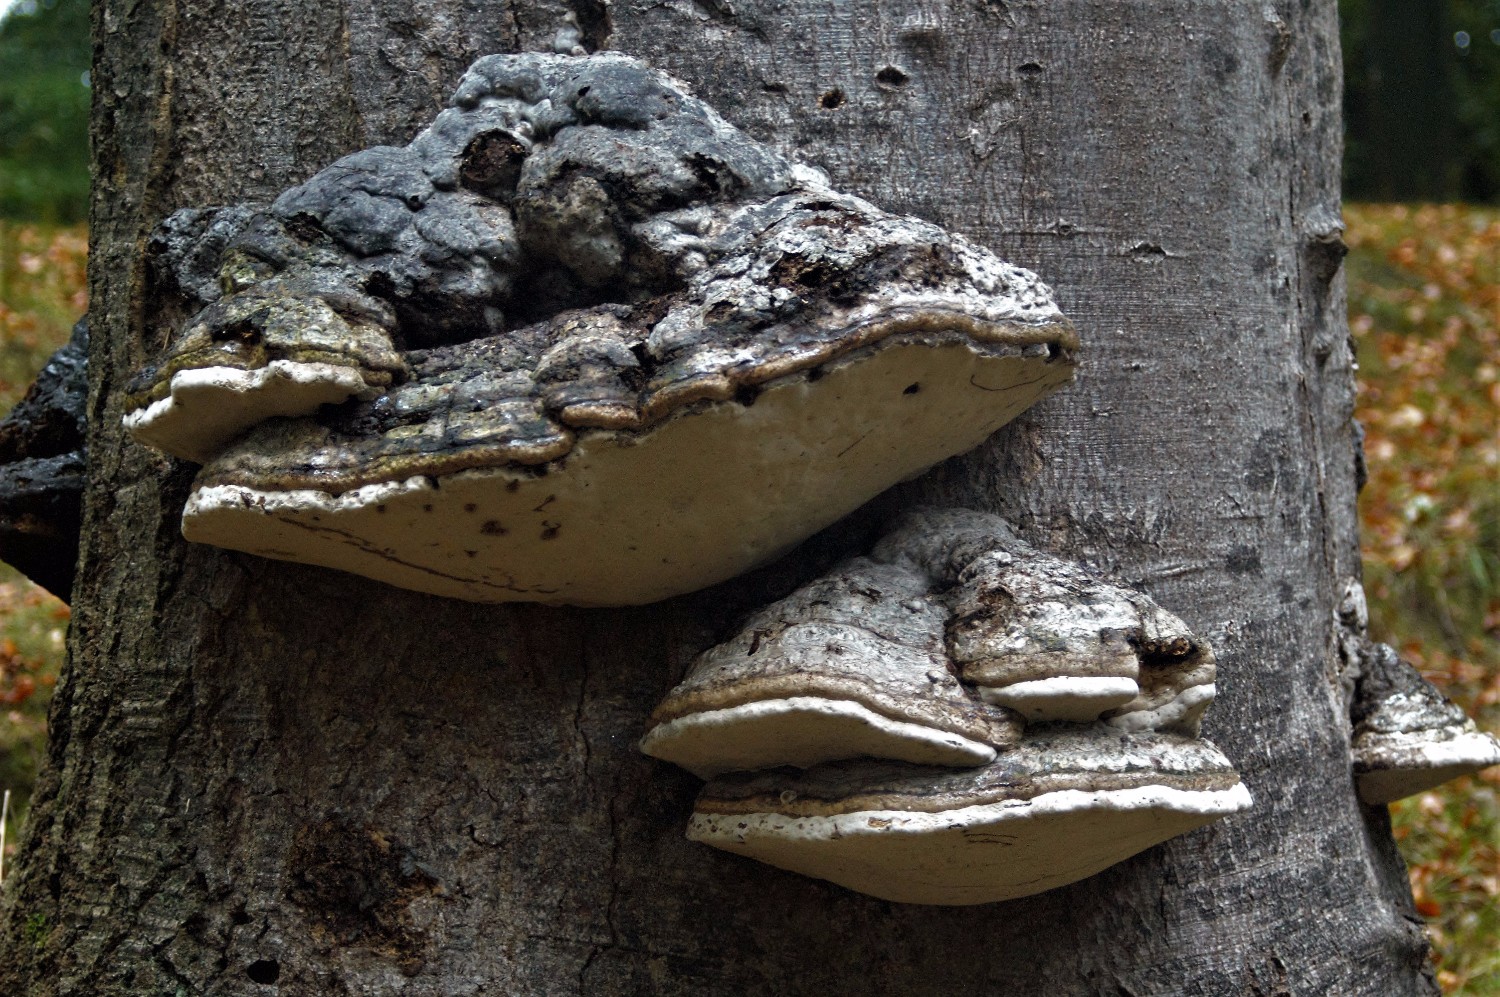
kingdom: Fungi
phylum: Basidiomycota
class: Agaricomycetes
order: Polyporales
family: Polyporaceae
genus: Fomes
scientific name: Fomes fomentarius
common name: tøndersvamp
